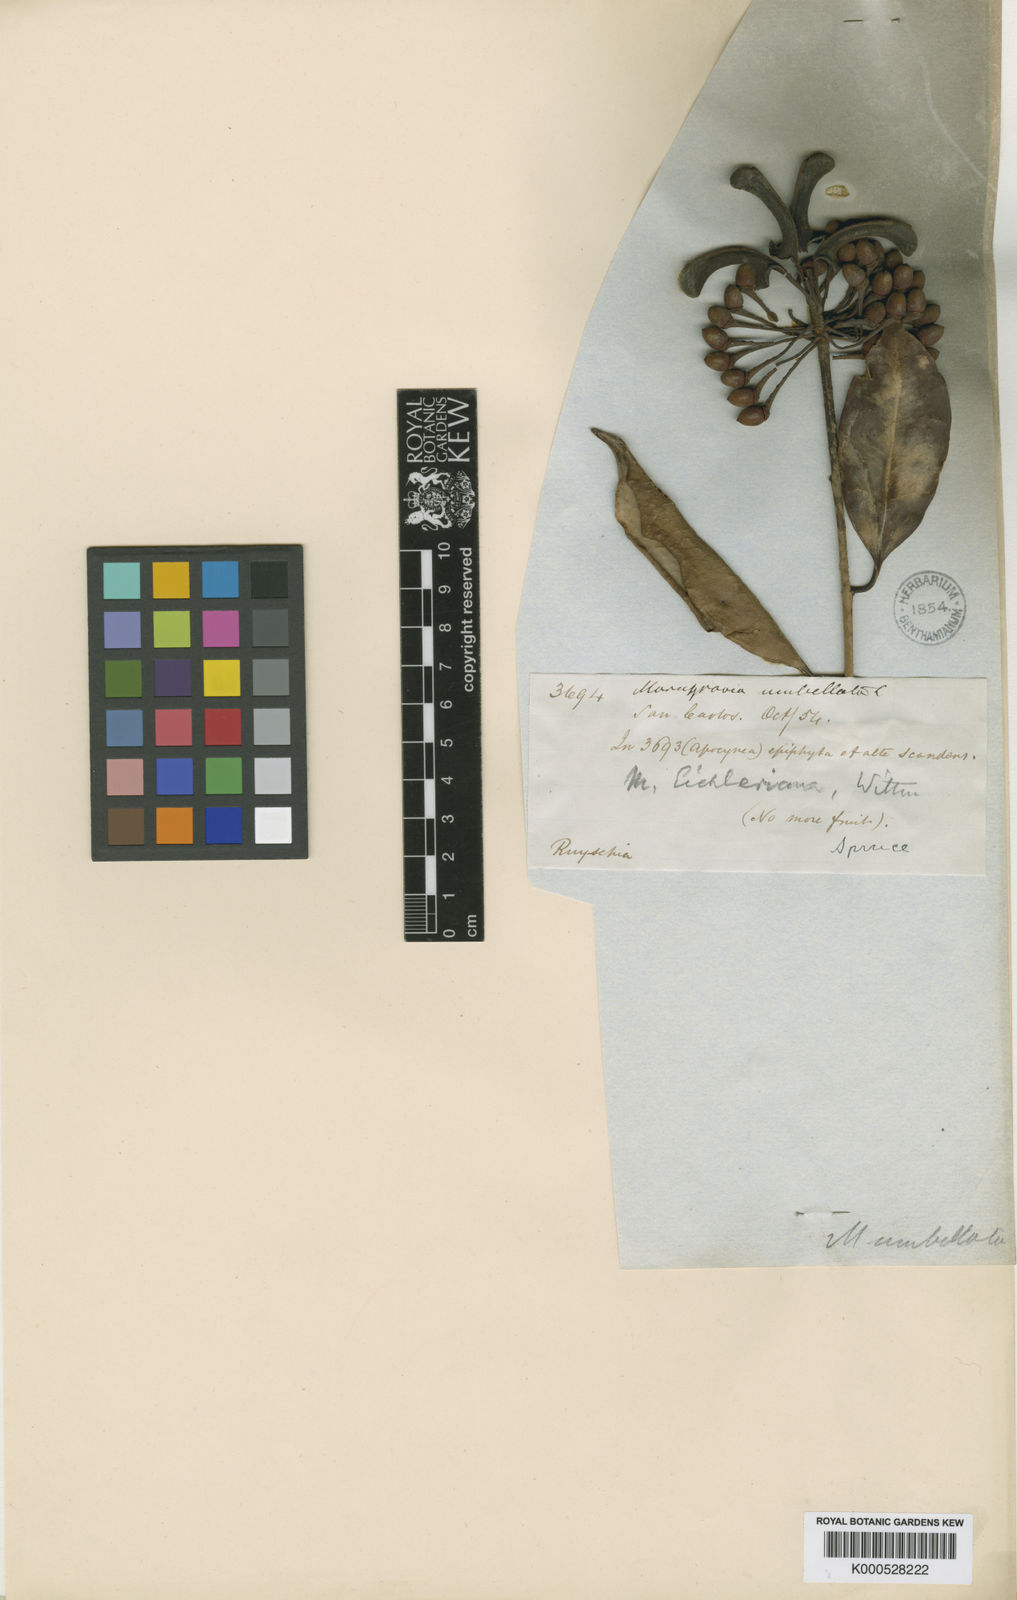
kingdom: Plantae
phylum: Tracheophyta
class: Magnoliopsida
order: Ericales
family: Marcgraviaceae
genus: Marcgravia
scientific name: Marcgravia eichleriana
